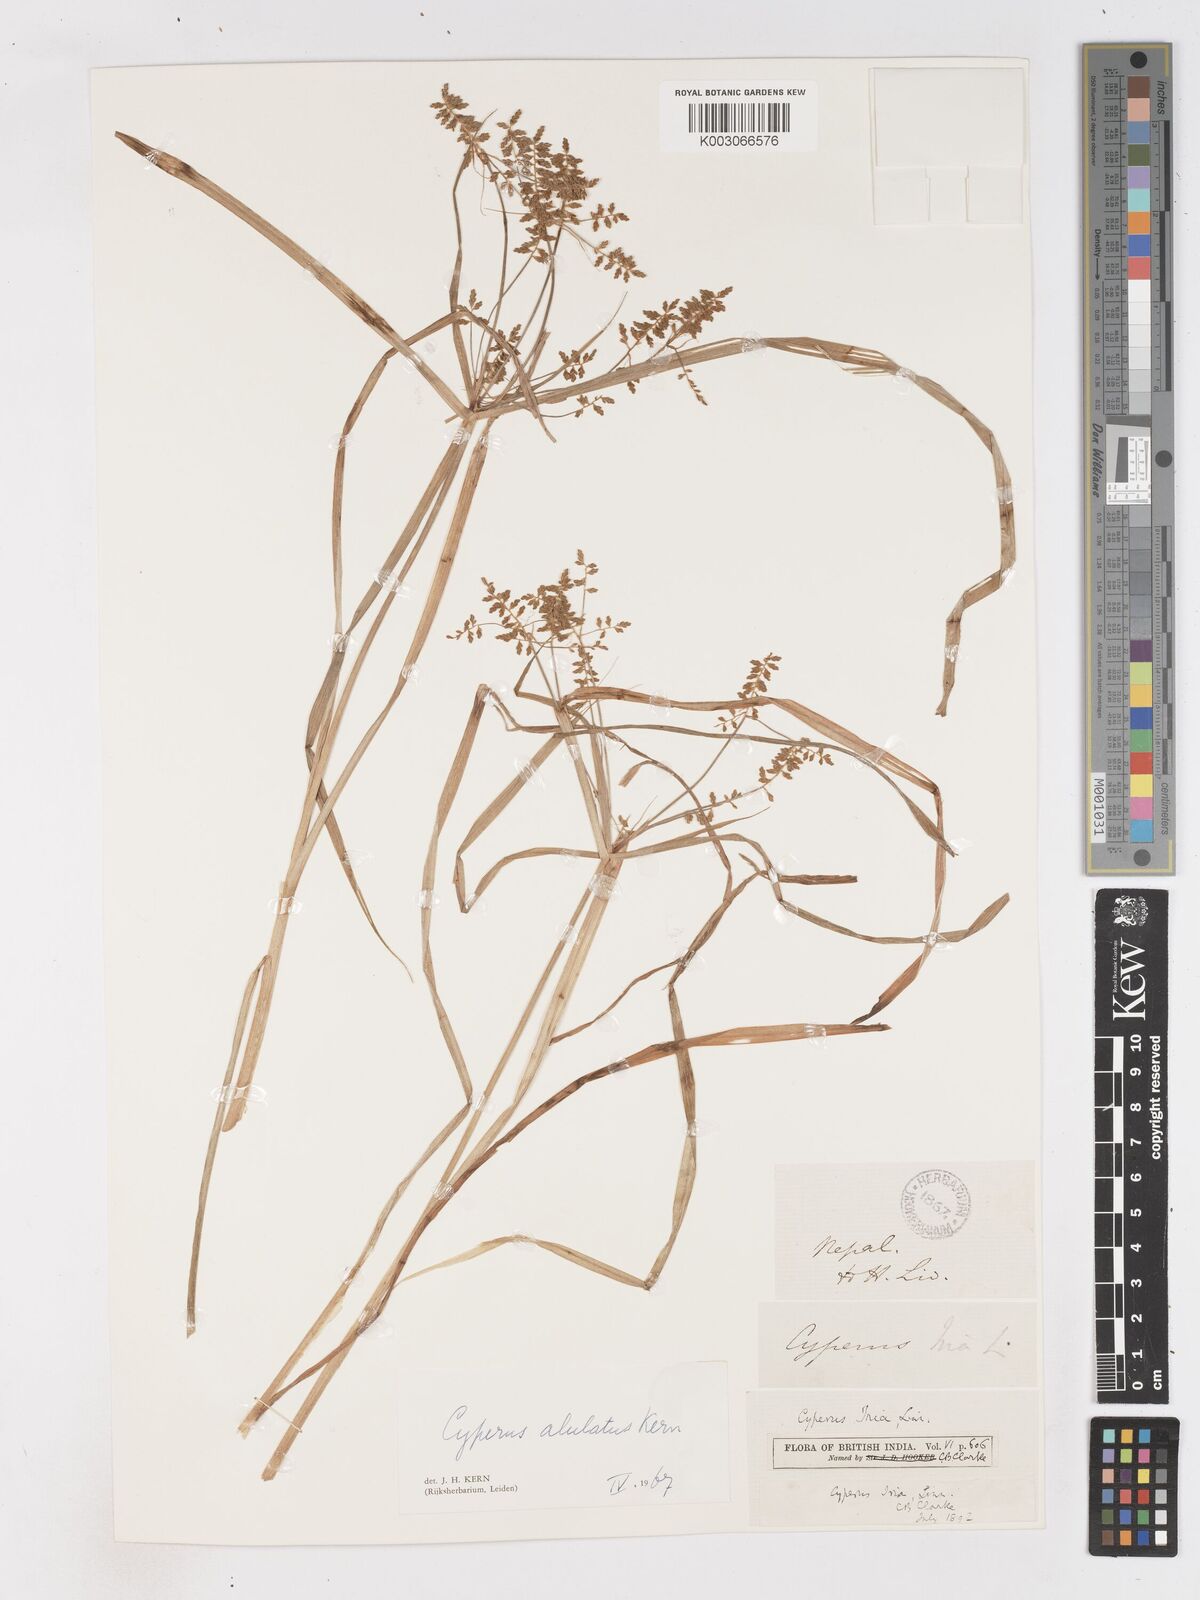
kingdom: Plantae
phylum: Tracheophyta
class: Liliopsida
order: Poales
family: Cyperaceae
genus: Cyperus
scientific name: Cyperus alulatus
